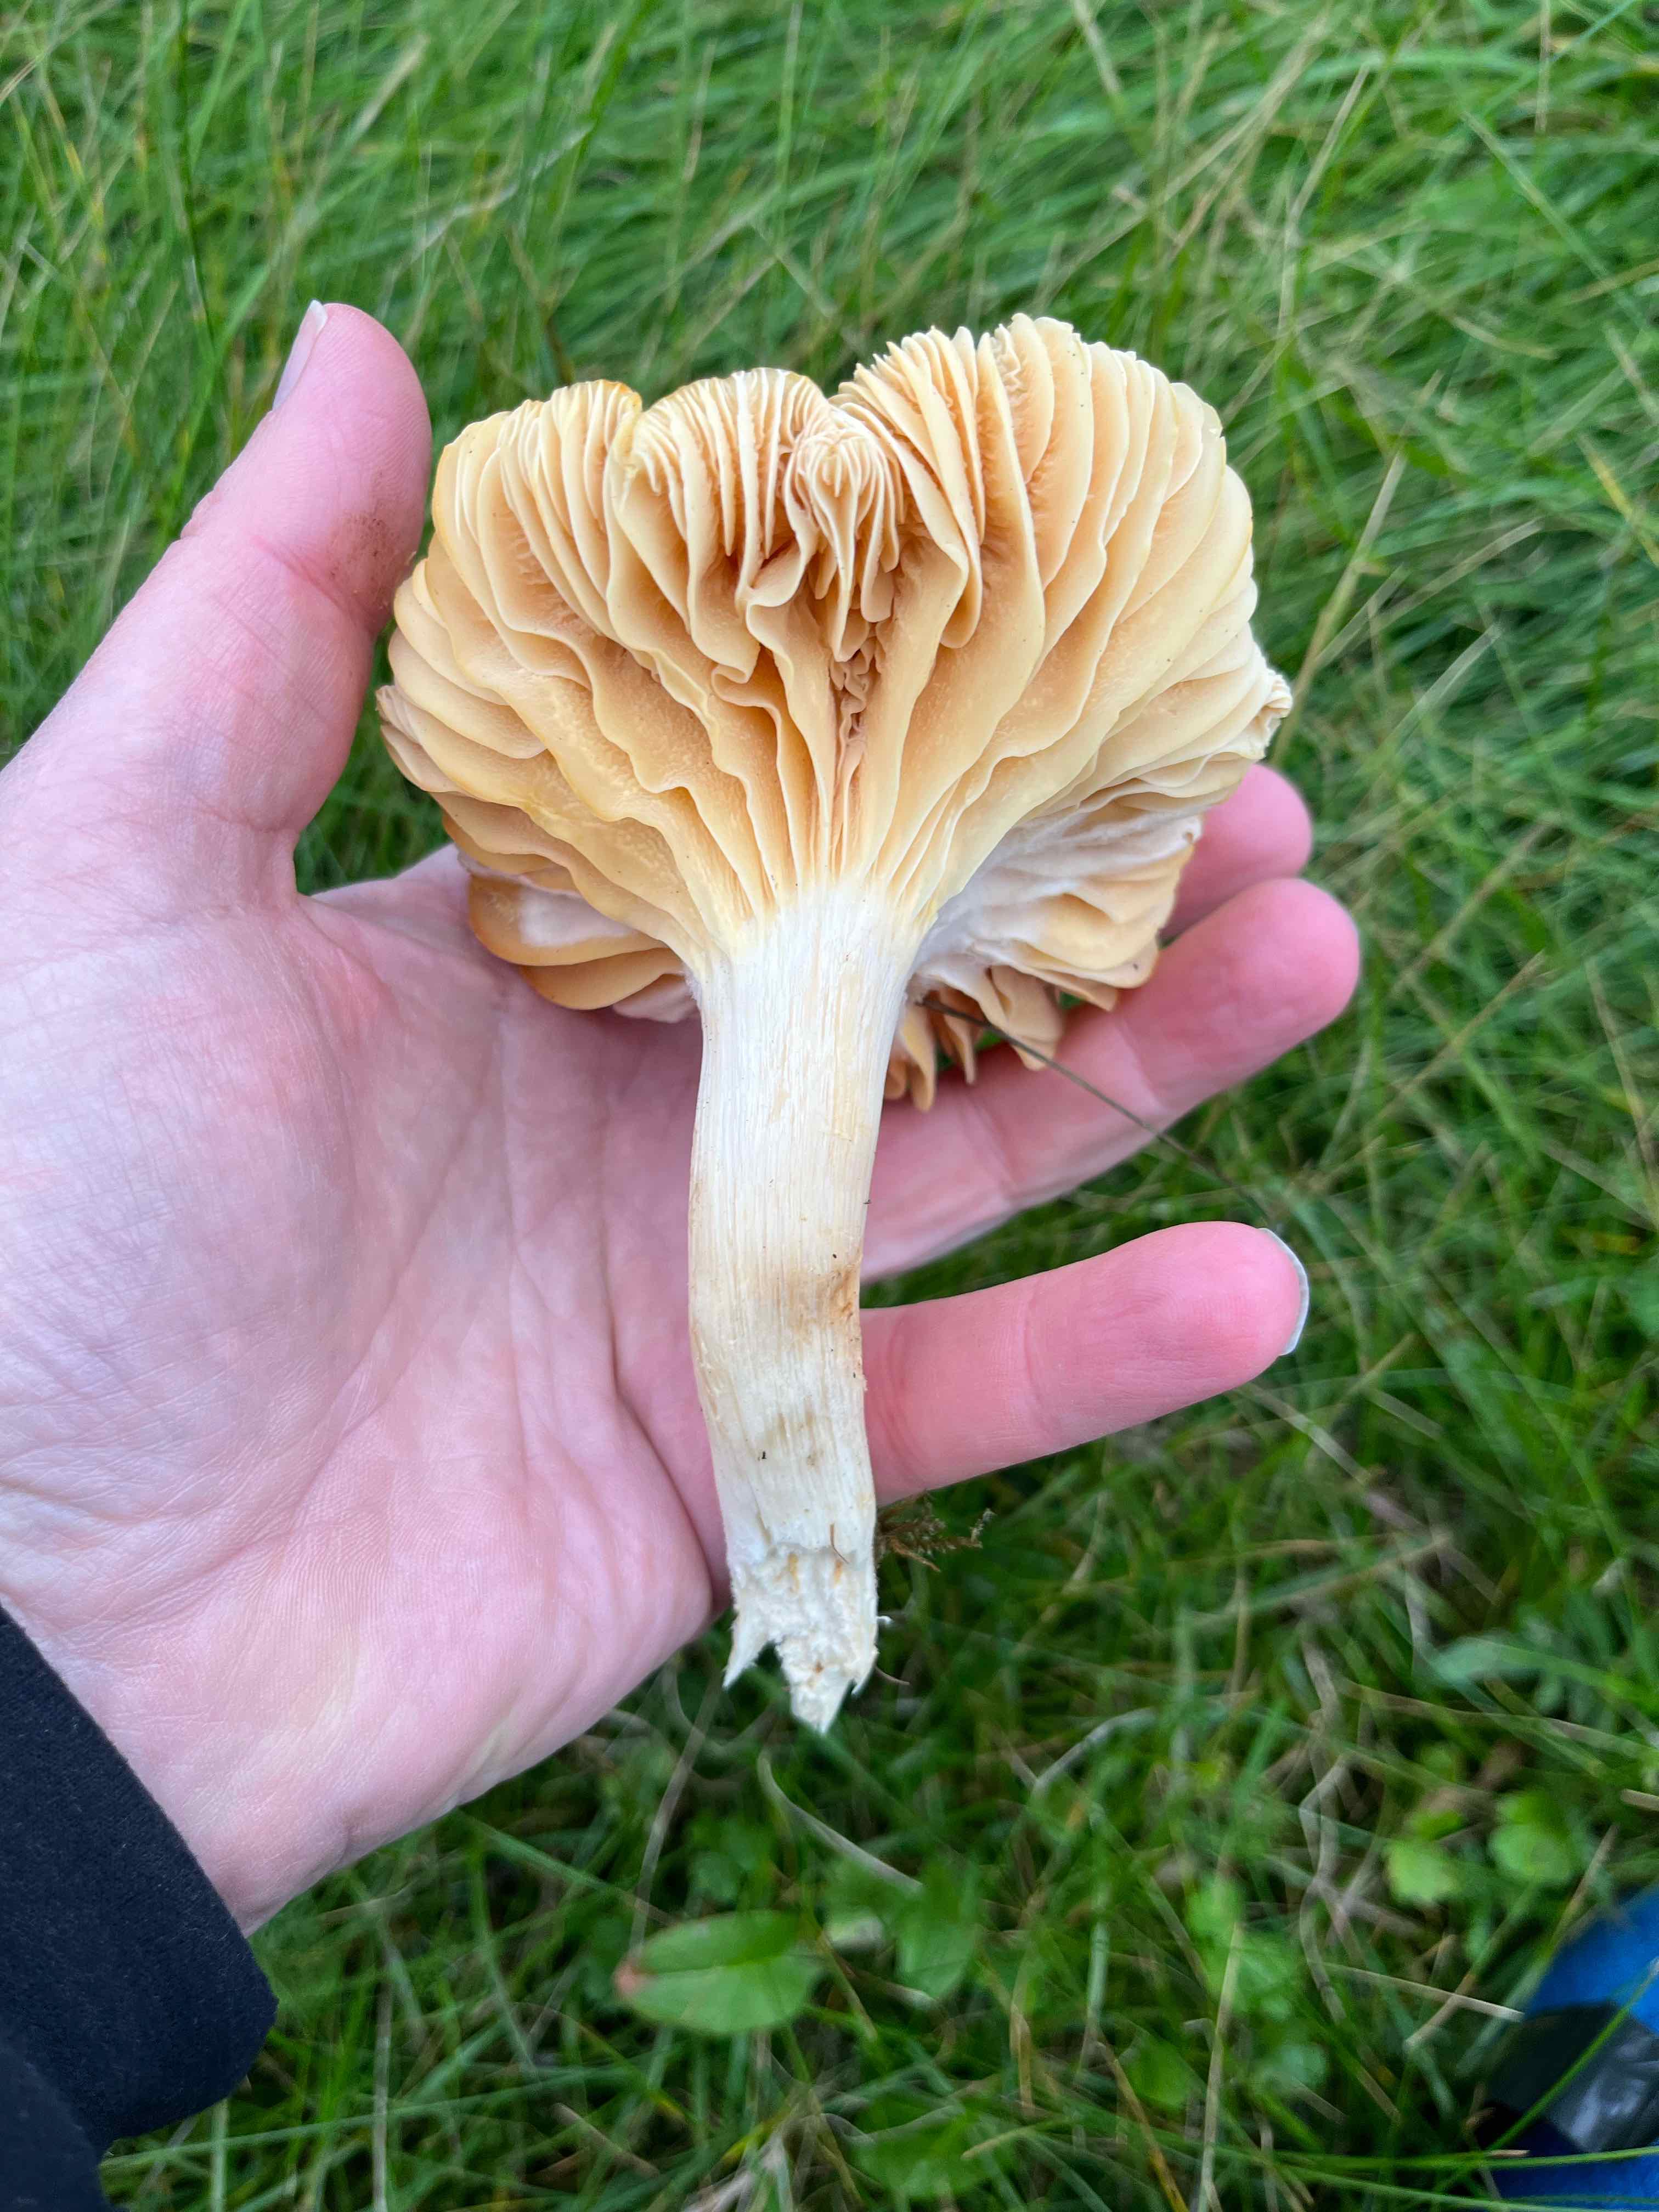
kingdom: Fungi
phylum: Basidiomycota
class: Agaricomycetes
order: Agaricales
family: Hygrophoraceae
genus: Cuphophyllus
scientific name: Cuphophyllus pratensis
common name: eng-vokshat
